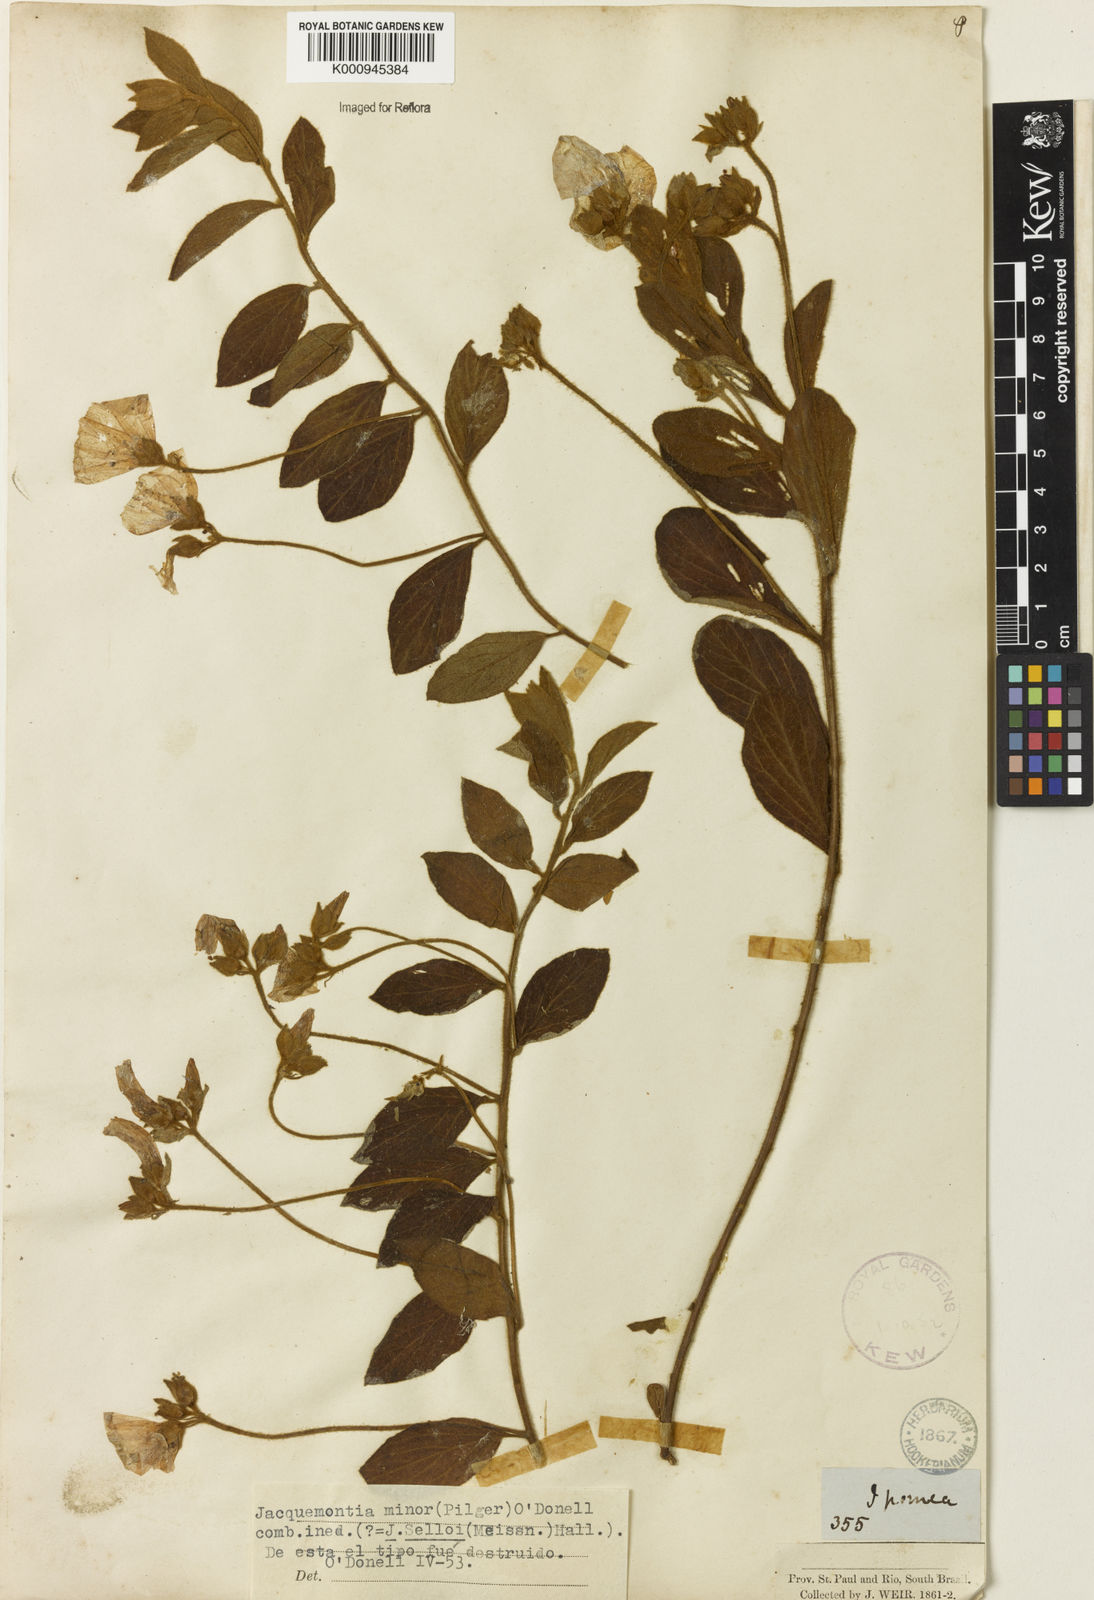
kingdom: Plantae
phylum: Tracheophyta
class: Magnoliopsida
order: Solanales
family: Convolvulaceae
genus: Jacquemontia
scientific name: Jacquemontia
